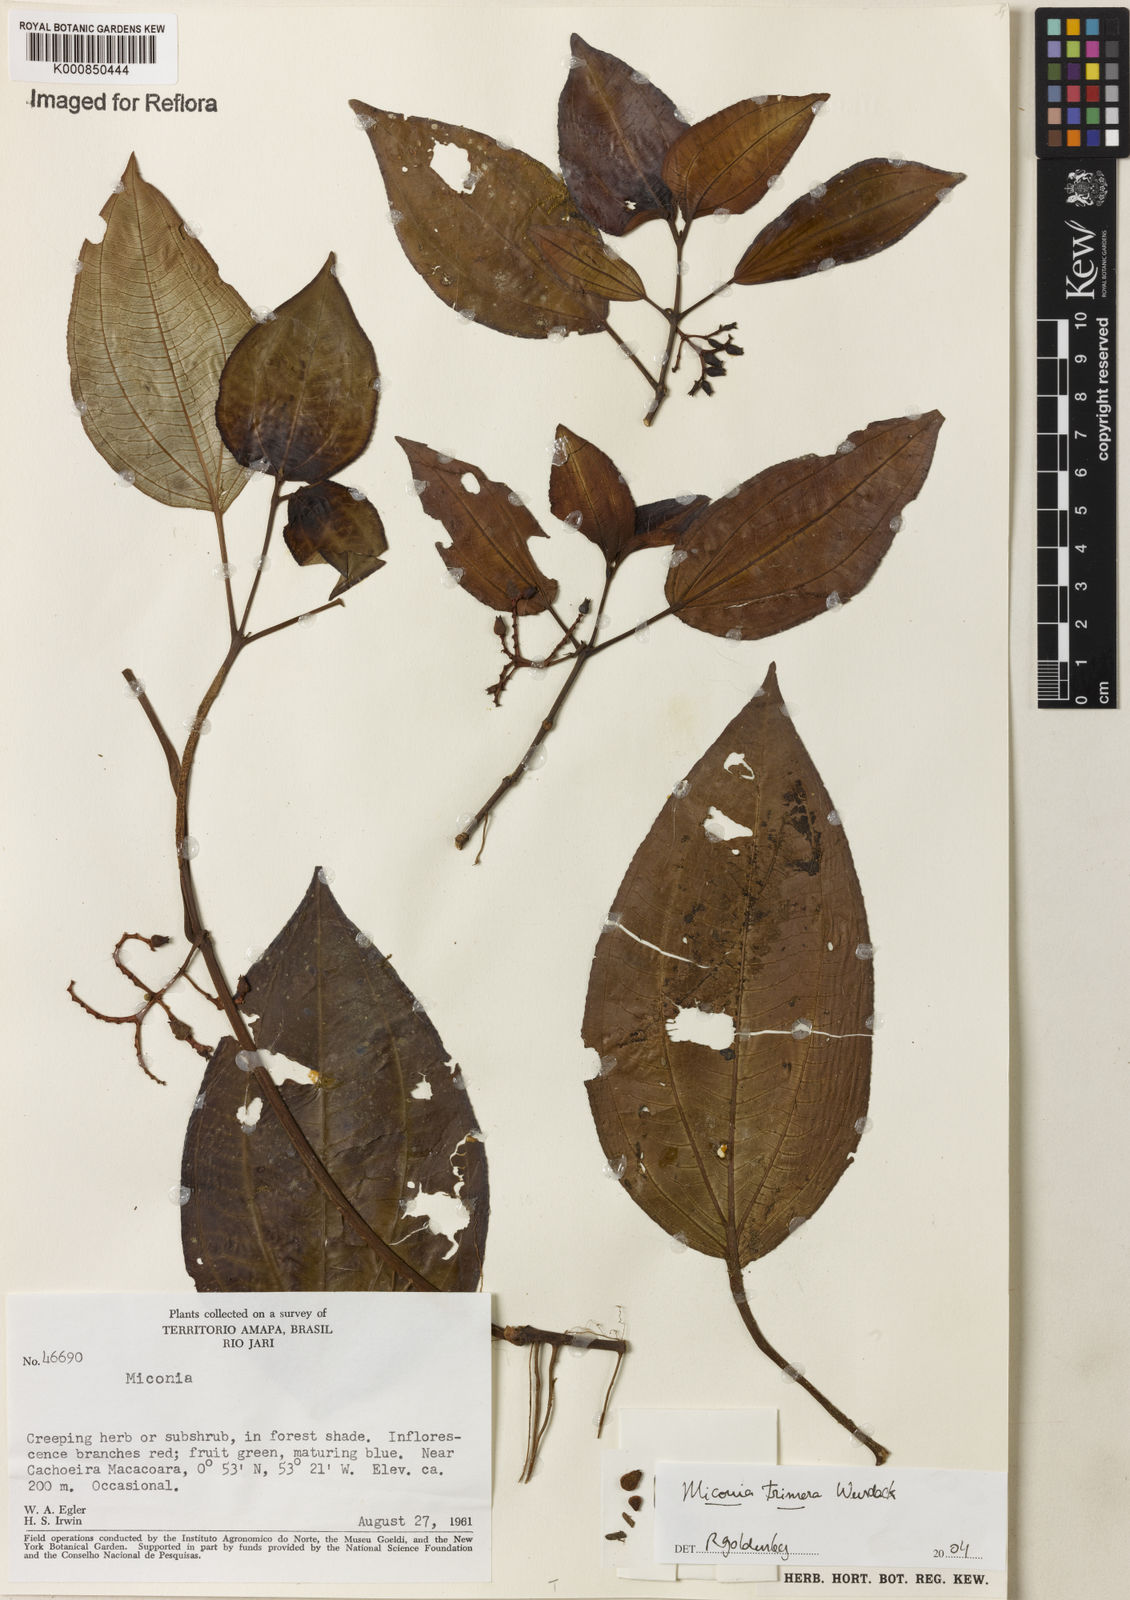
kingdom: Plantae
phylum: Tracheophyta
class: Magnoliopsida
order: Myrtales
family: Melastomataceae
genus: Miconia
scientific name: Miconia trimera
